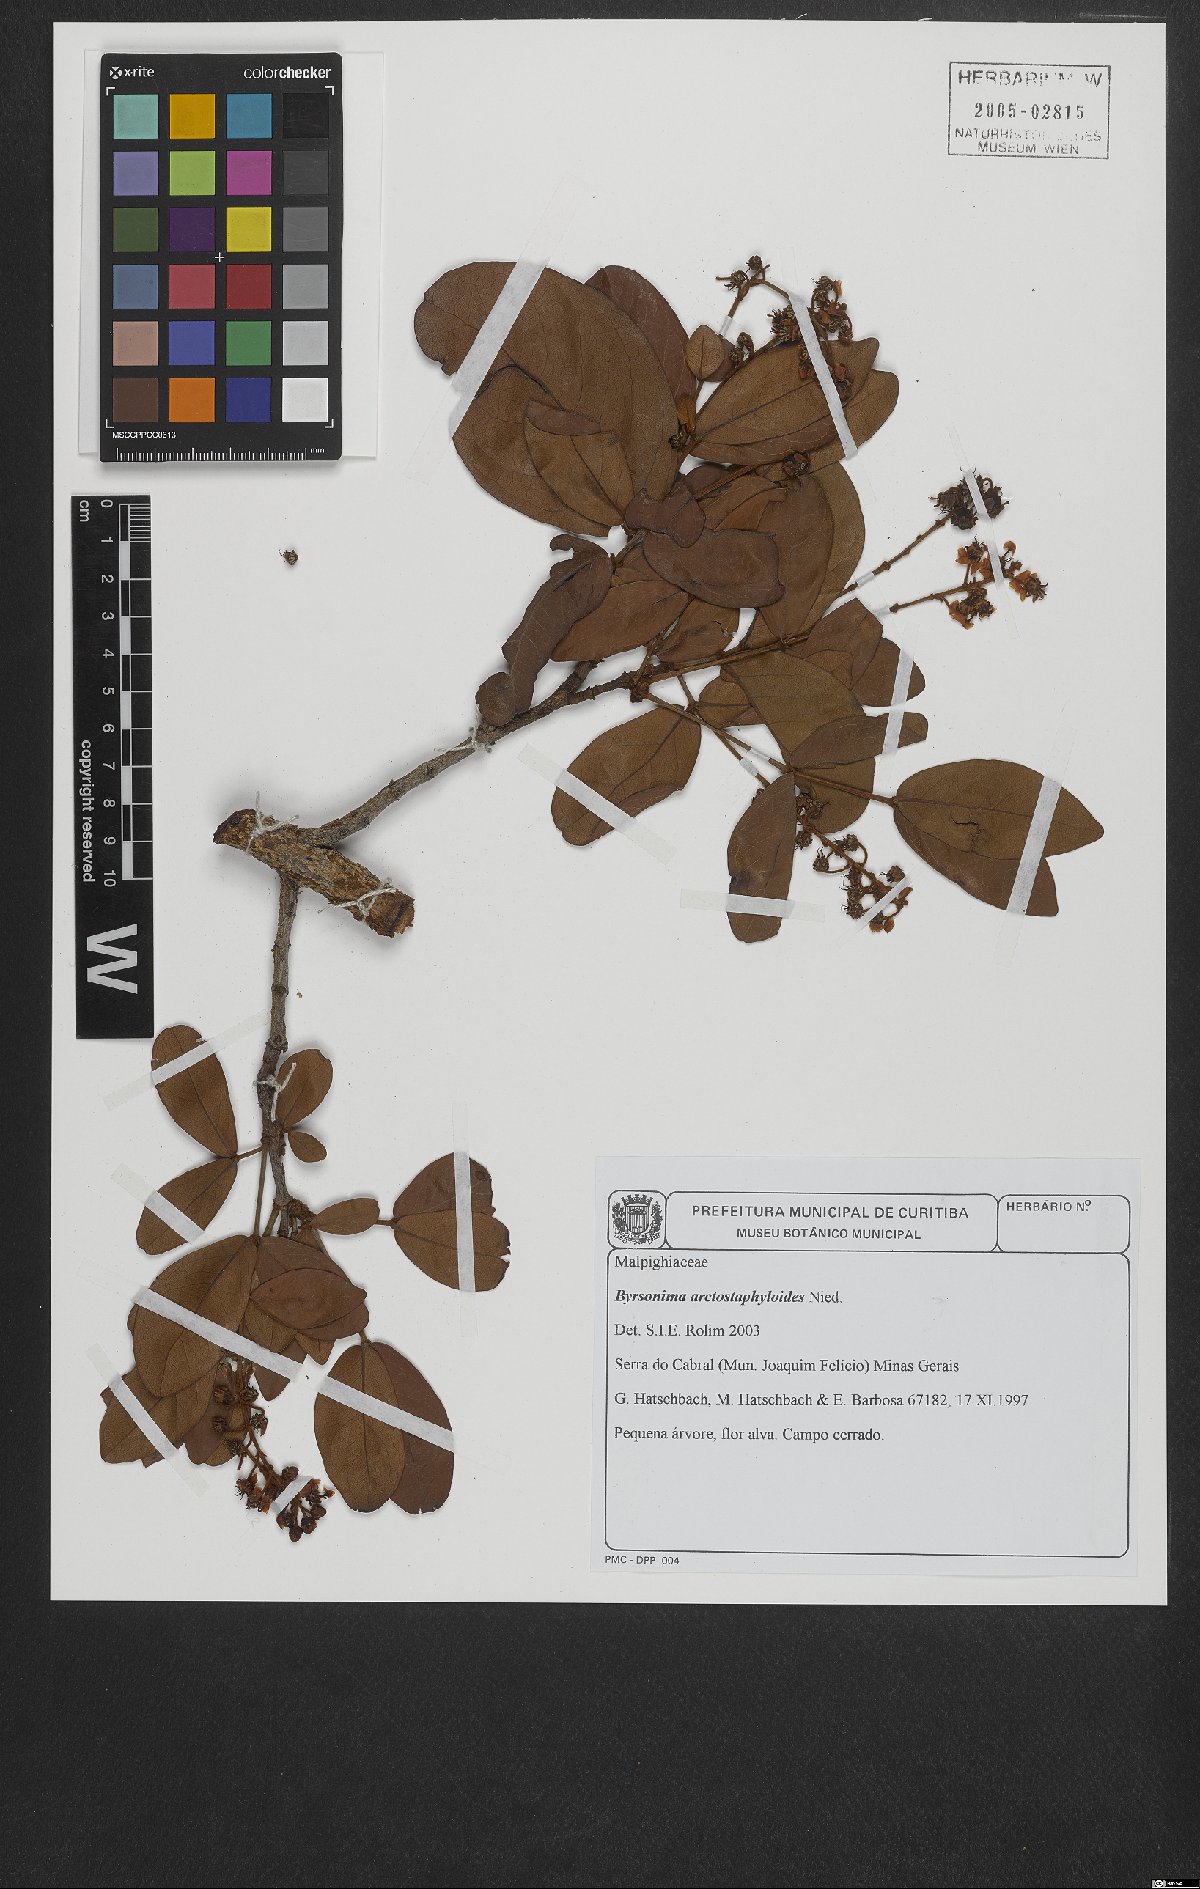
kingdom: Plantae
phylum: Tracheophyta
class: Magnoliopsida
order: Malpighiales
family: Malpighiaceae
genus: Byrsonima
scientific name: Byrsonima arctostaphyloides
